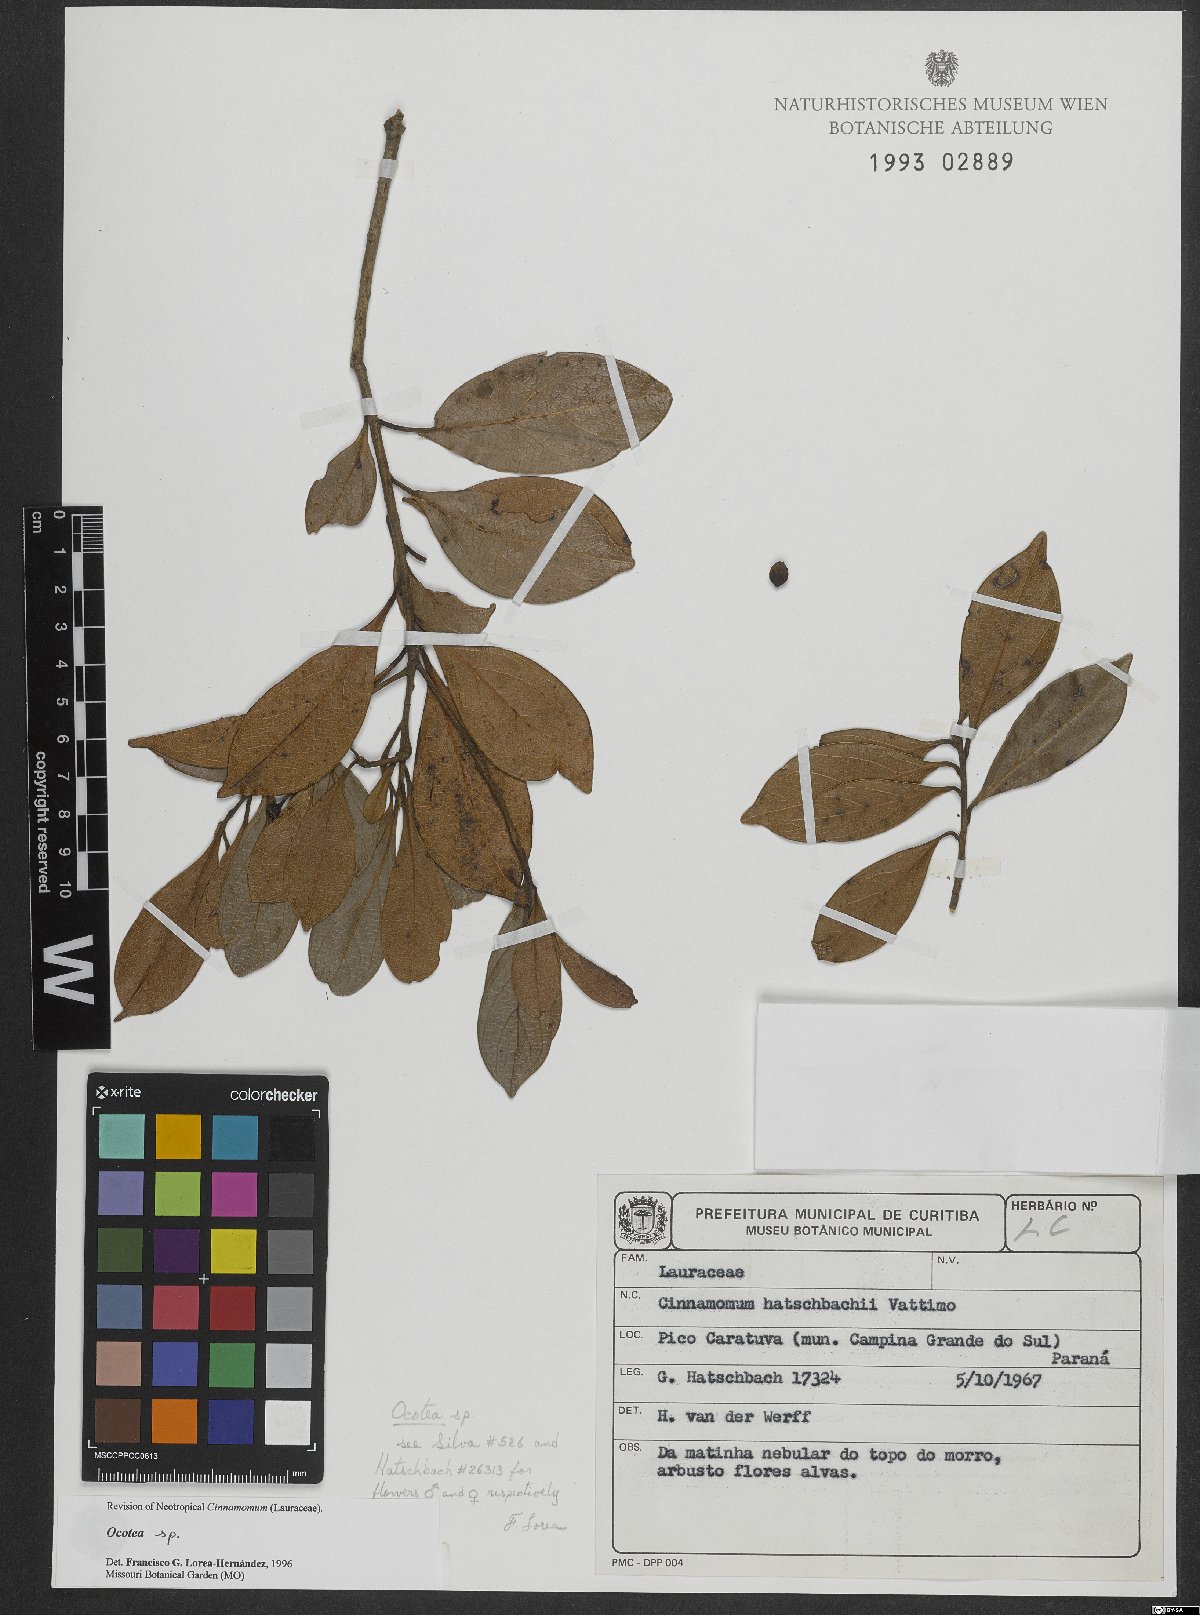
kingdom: Plantae
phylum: Tracheophyta
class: Magnoliopsida
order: Laurales
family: Lauraceae
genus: Ocotea
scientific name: Ocotea
